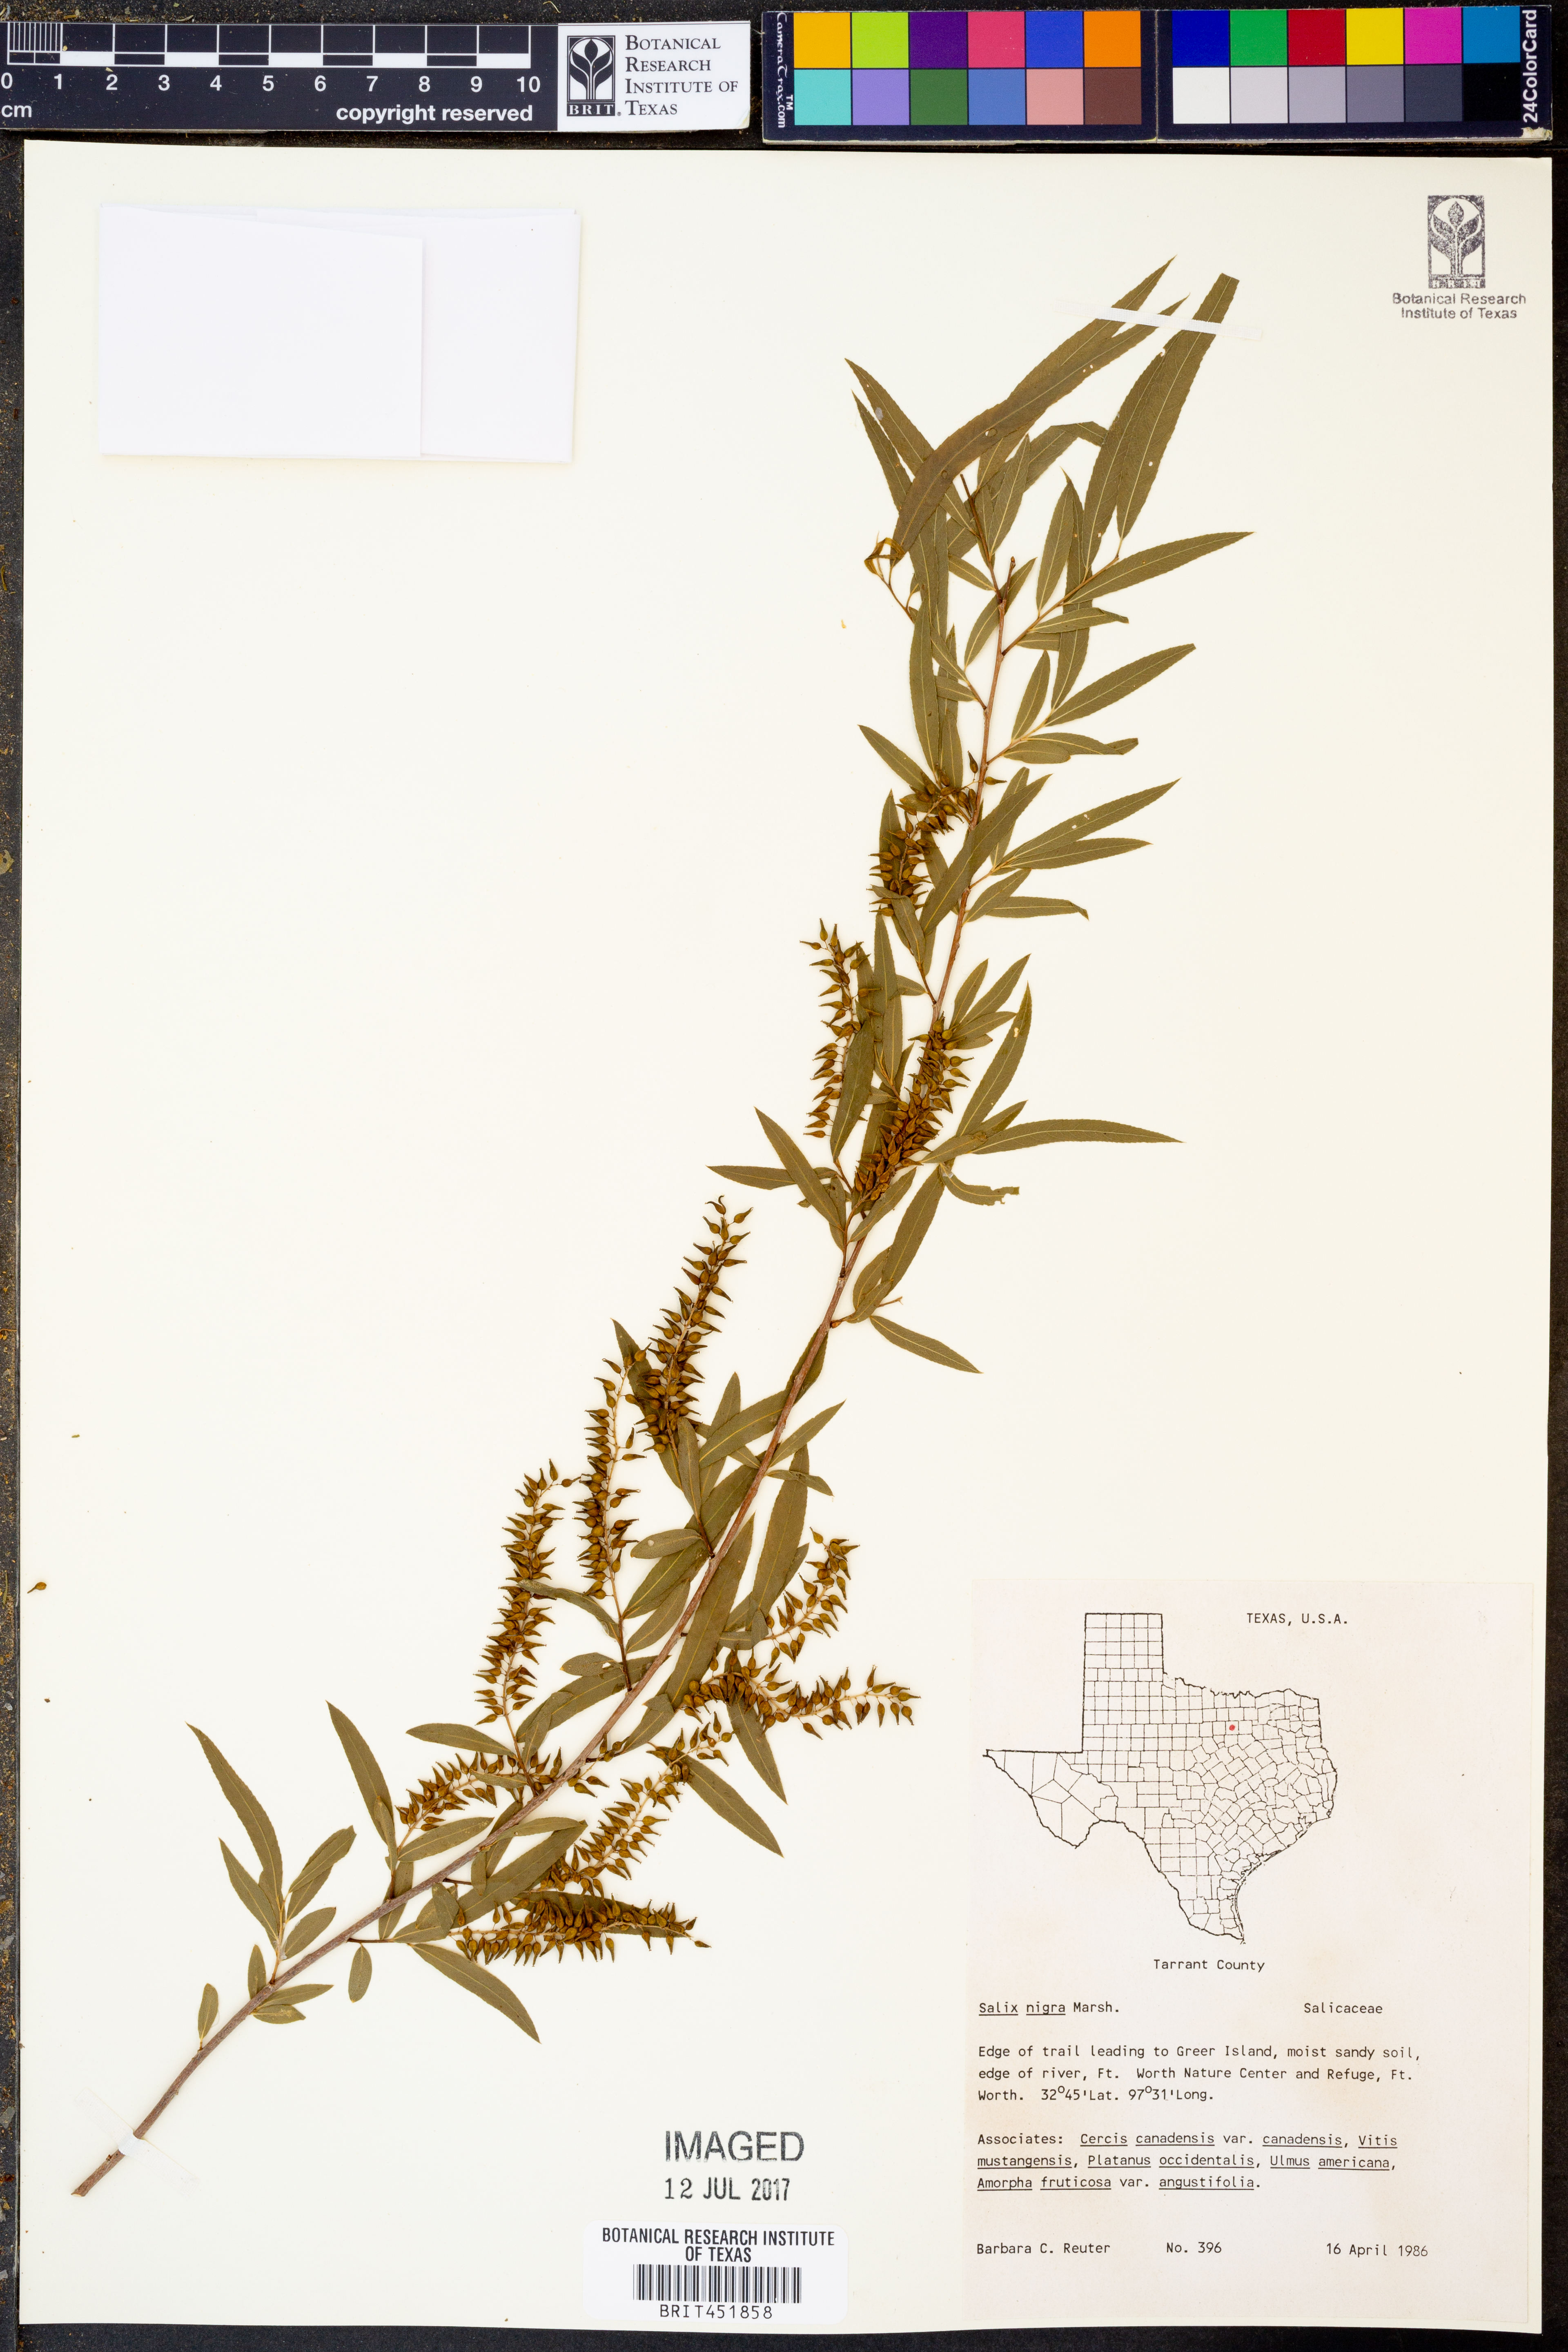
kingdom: Plantae
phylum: Tracheophyta
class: Magnoliopsida
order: Malpighiales
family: Salicaceae
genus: Salix
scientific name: Salix nigra
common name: Black willow
